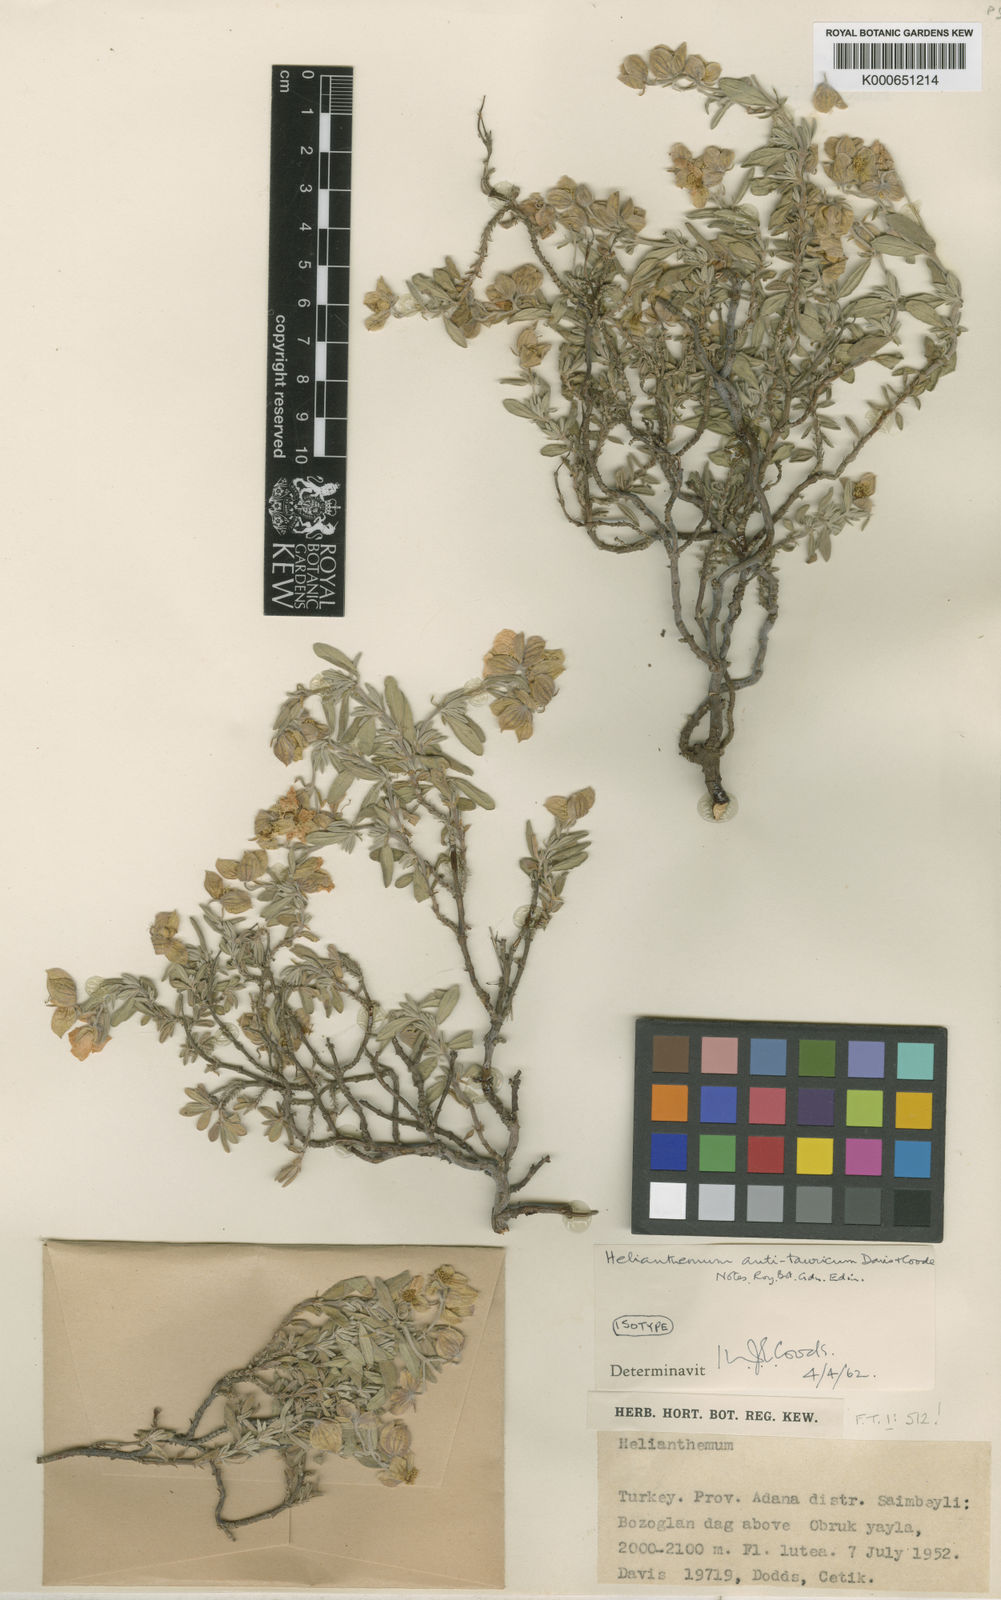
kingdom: Plantae
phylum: Tracheophyta
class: Magnoliopsida
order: Malvales
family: Cistaceae
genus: Helianthemum
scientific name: Helianthemum antitauricum
